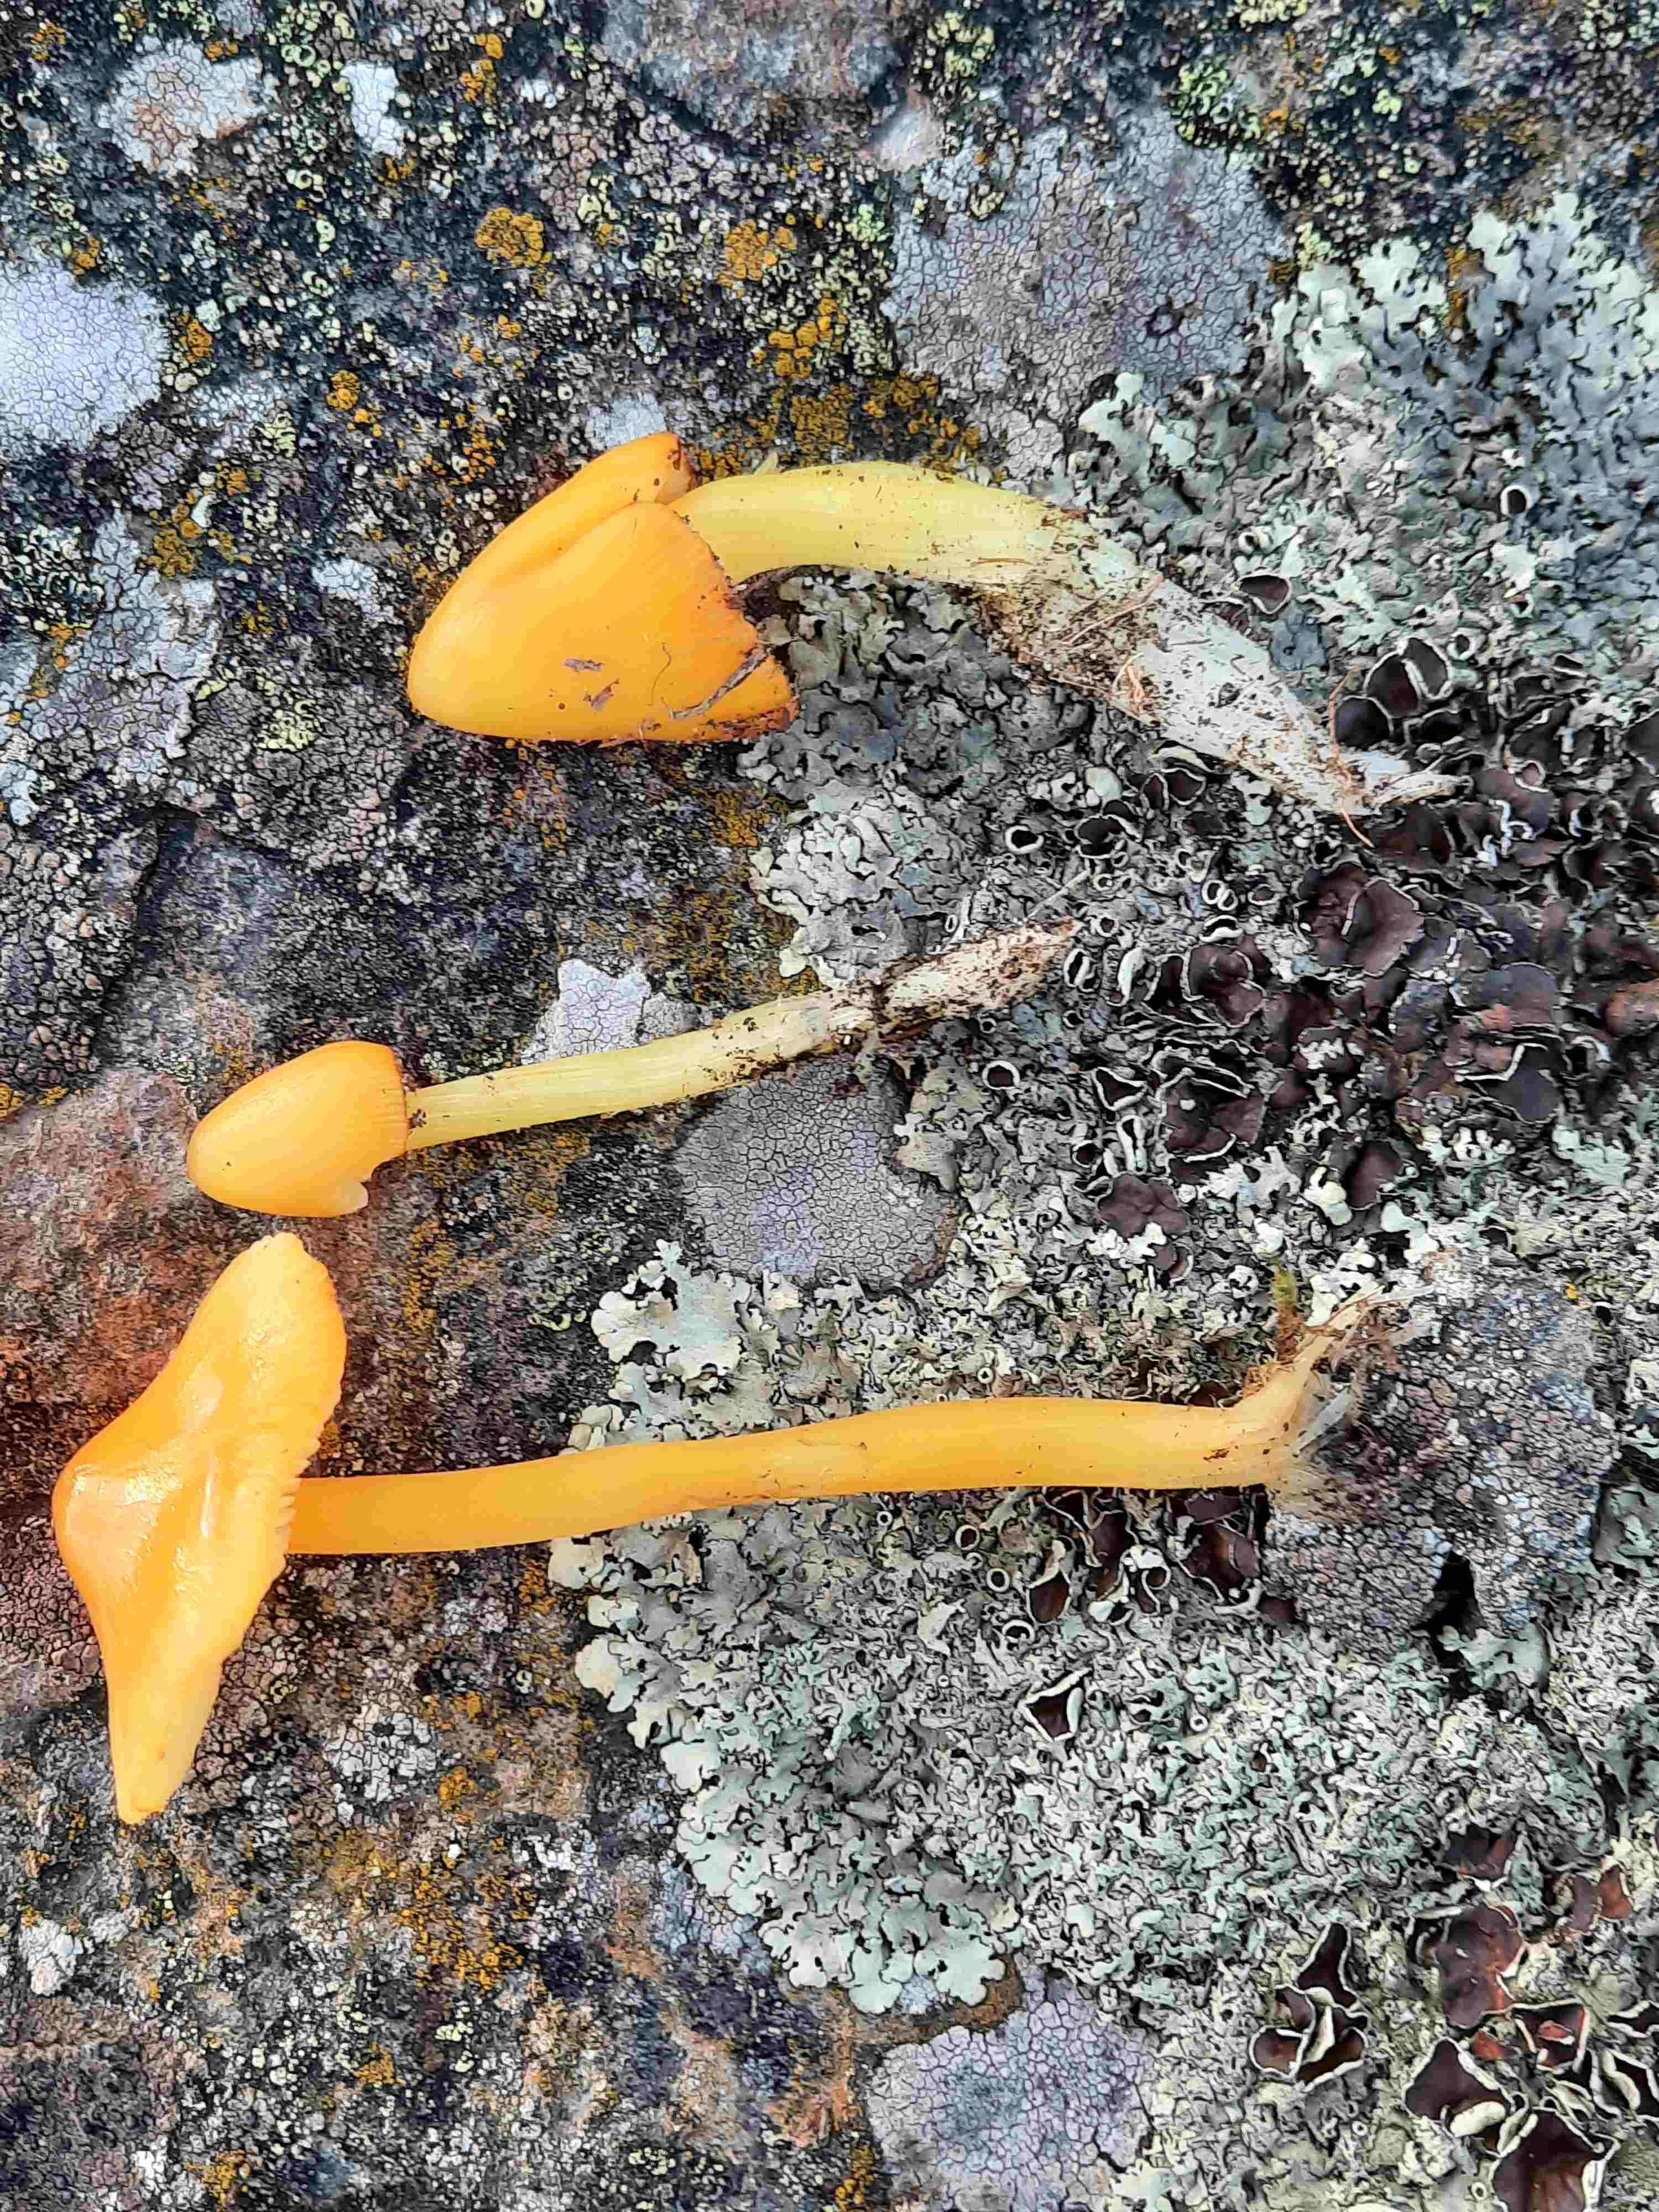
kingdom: Fungi
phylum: Basidiomycota
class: Agaricomycetes
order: Agaricales
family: Hygrophoraceae
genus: Hygrocybe
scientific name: Hygrocybe acutoconica
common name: spidspuklet vokshat
